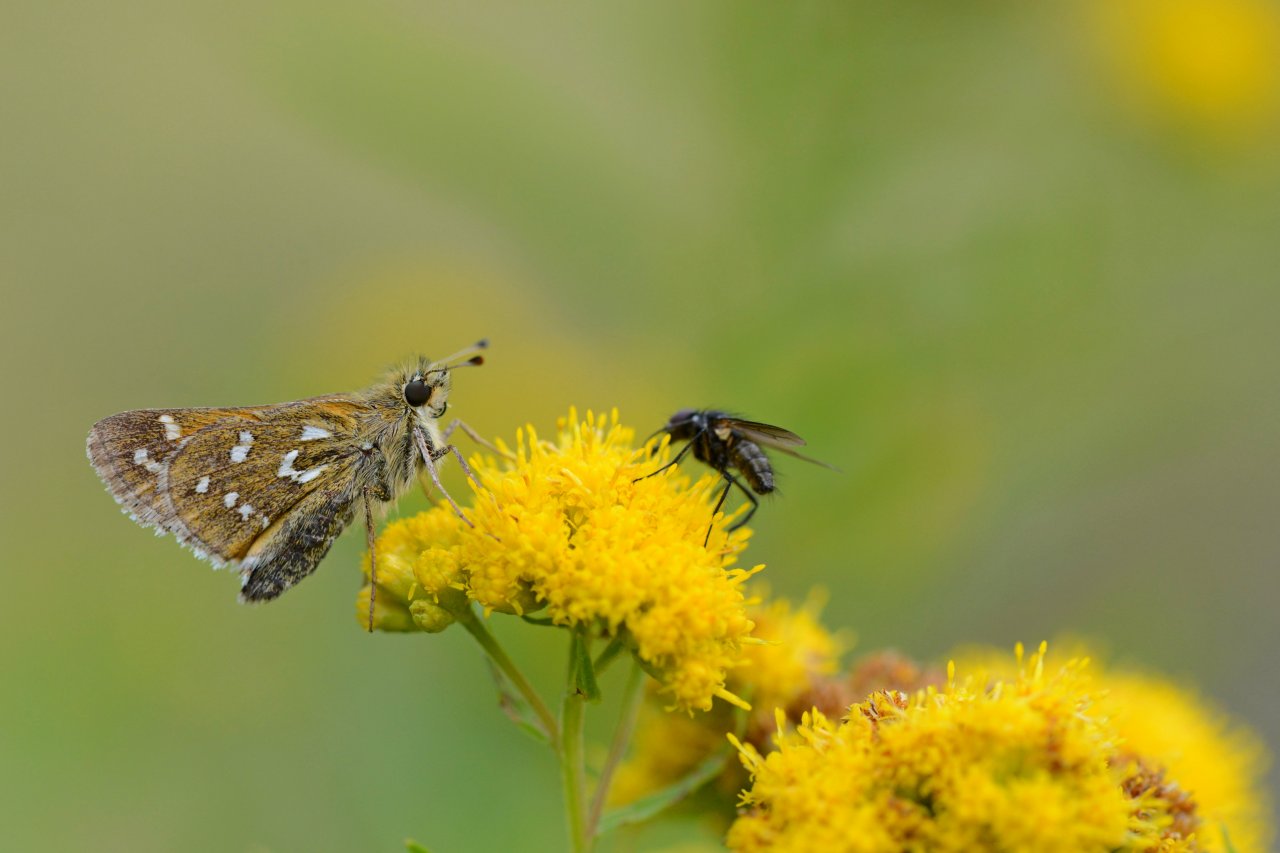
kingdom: Animalia
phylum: Arthropoda
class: Insecta
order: Lepidoptera
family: Hesperiidae
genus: Hesperia
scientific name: Hesperia comma
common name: Common Branded Skipper
